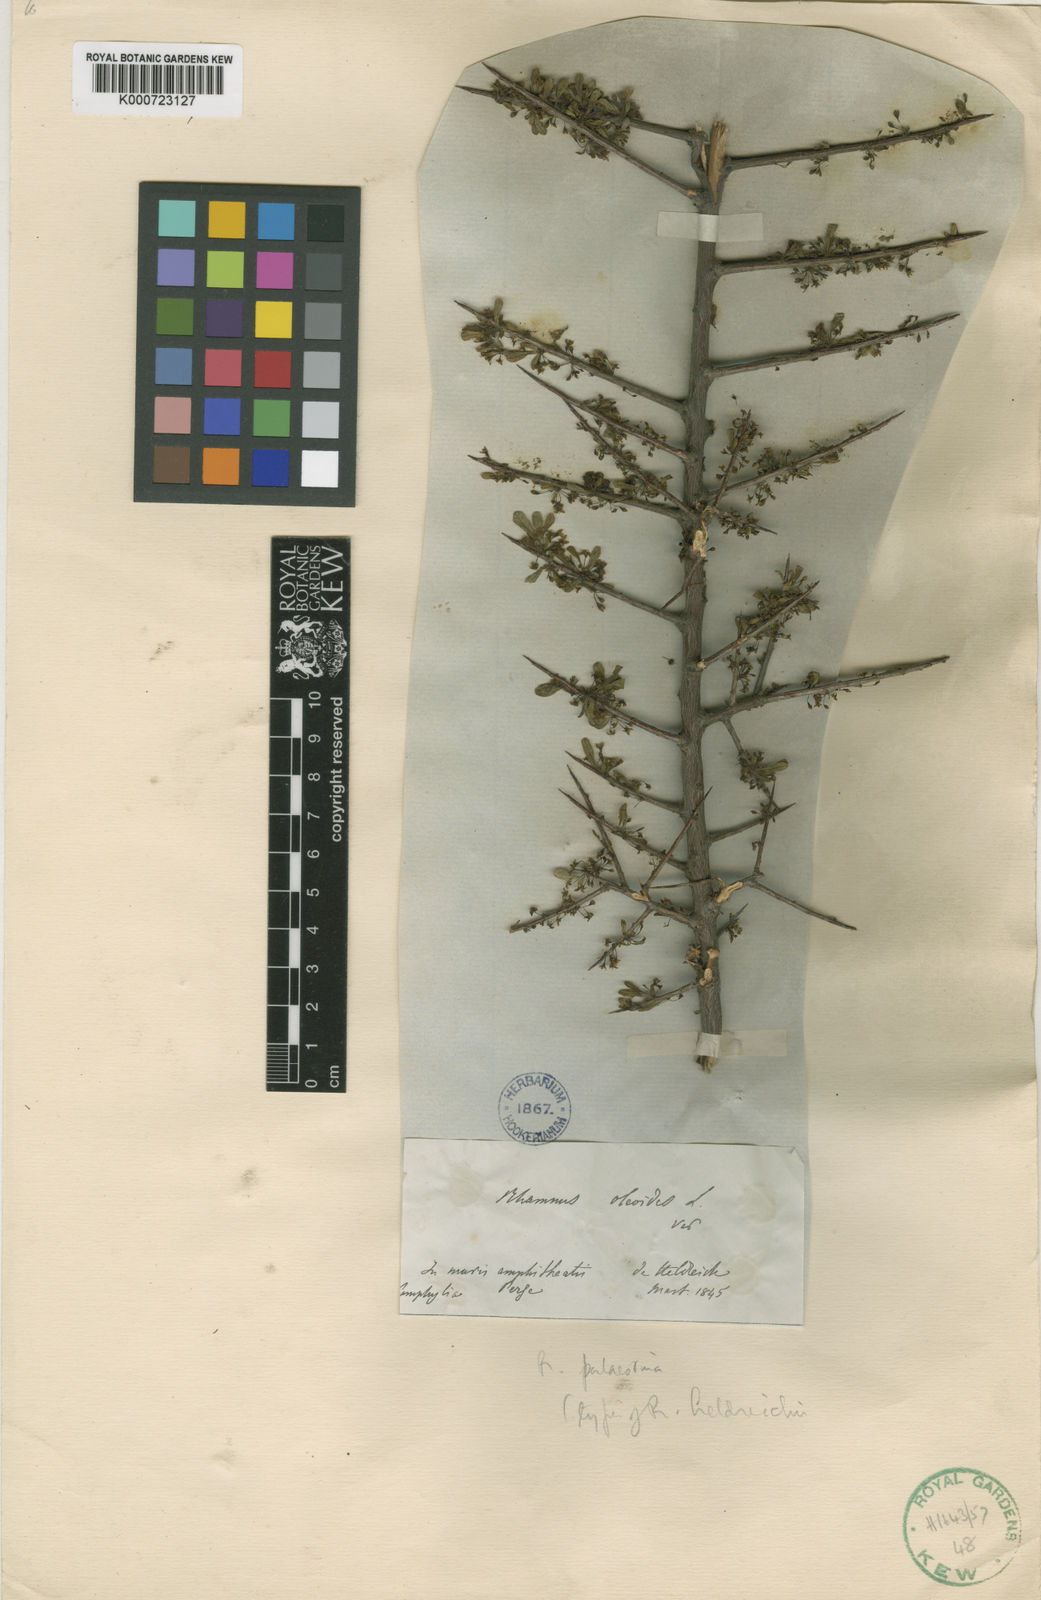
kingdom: Plantae
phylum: Tracheophyta
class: Magnoliopsida
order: Rosales
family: Rhamnaceae
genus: Rhamnus
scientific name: Rhamnus lycioides
